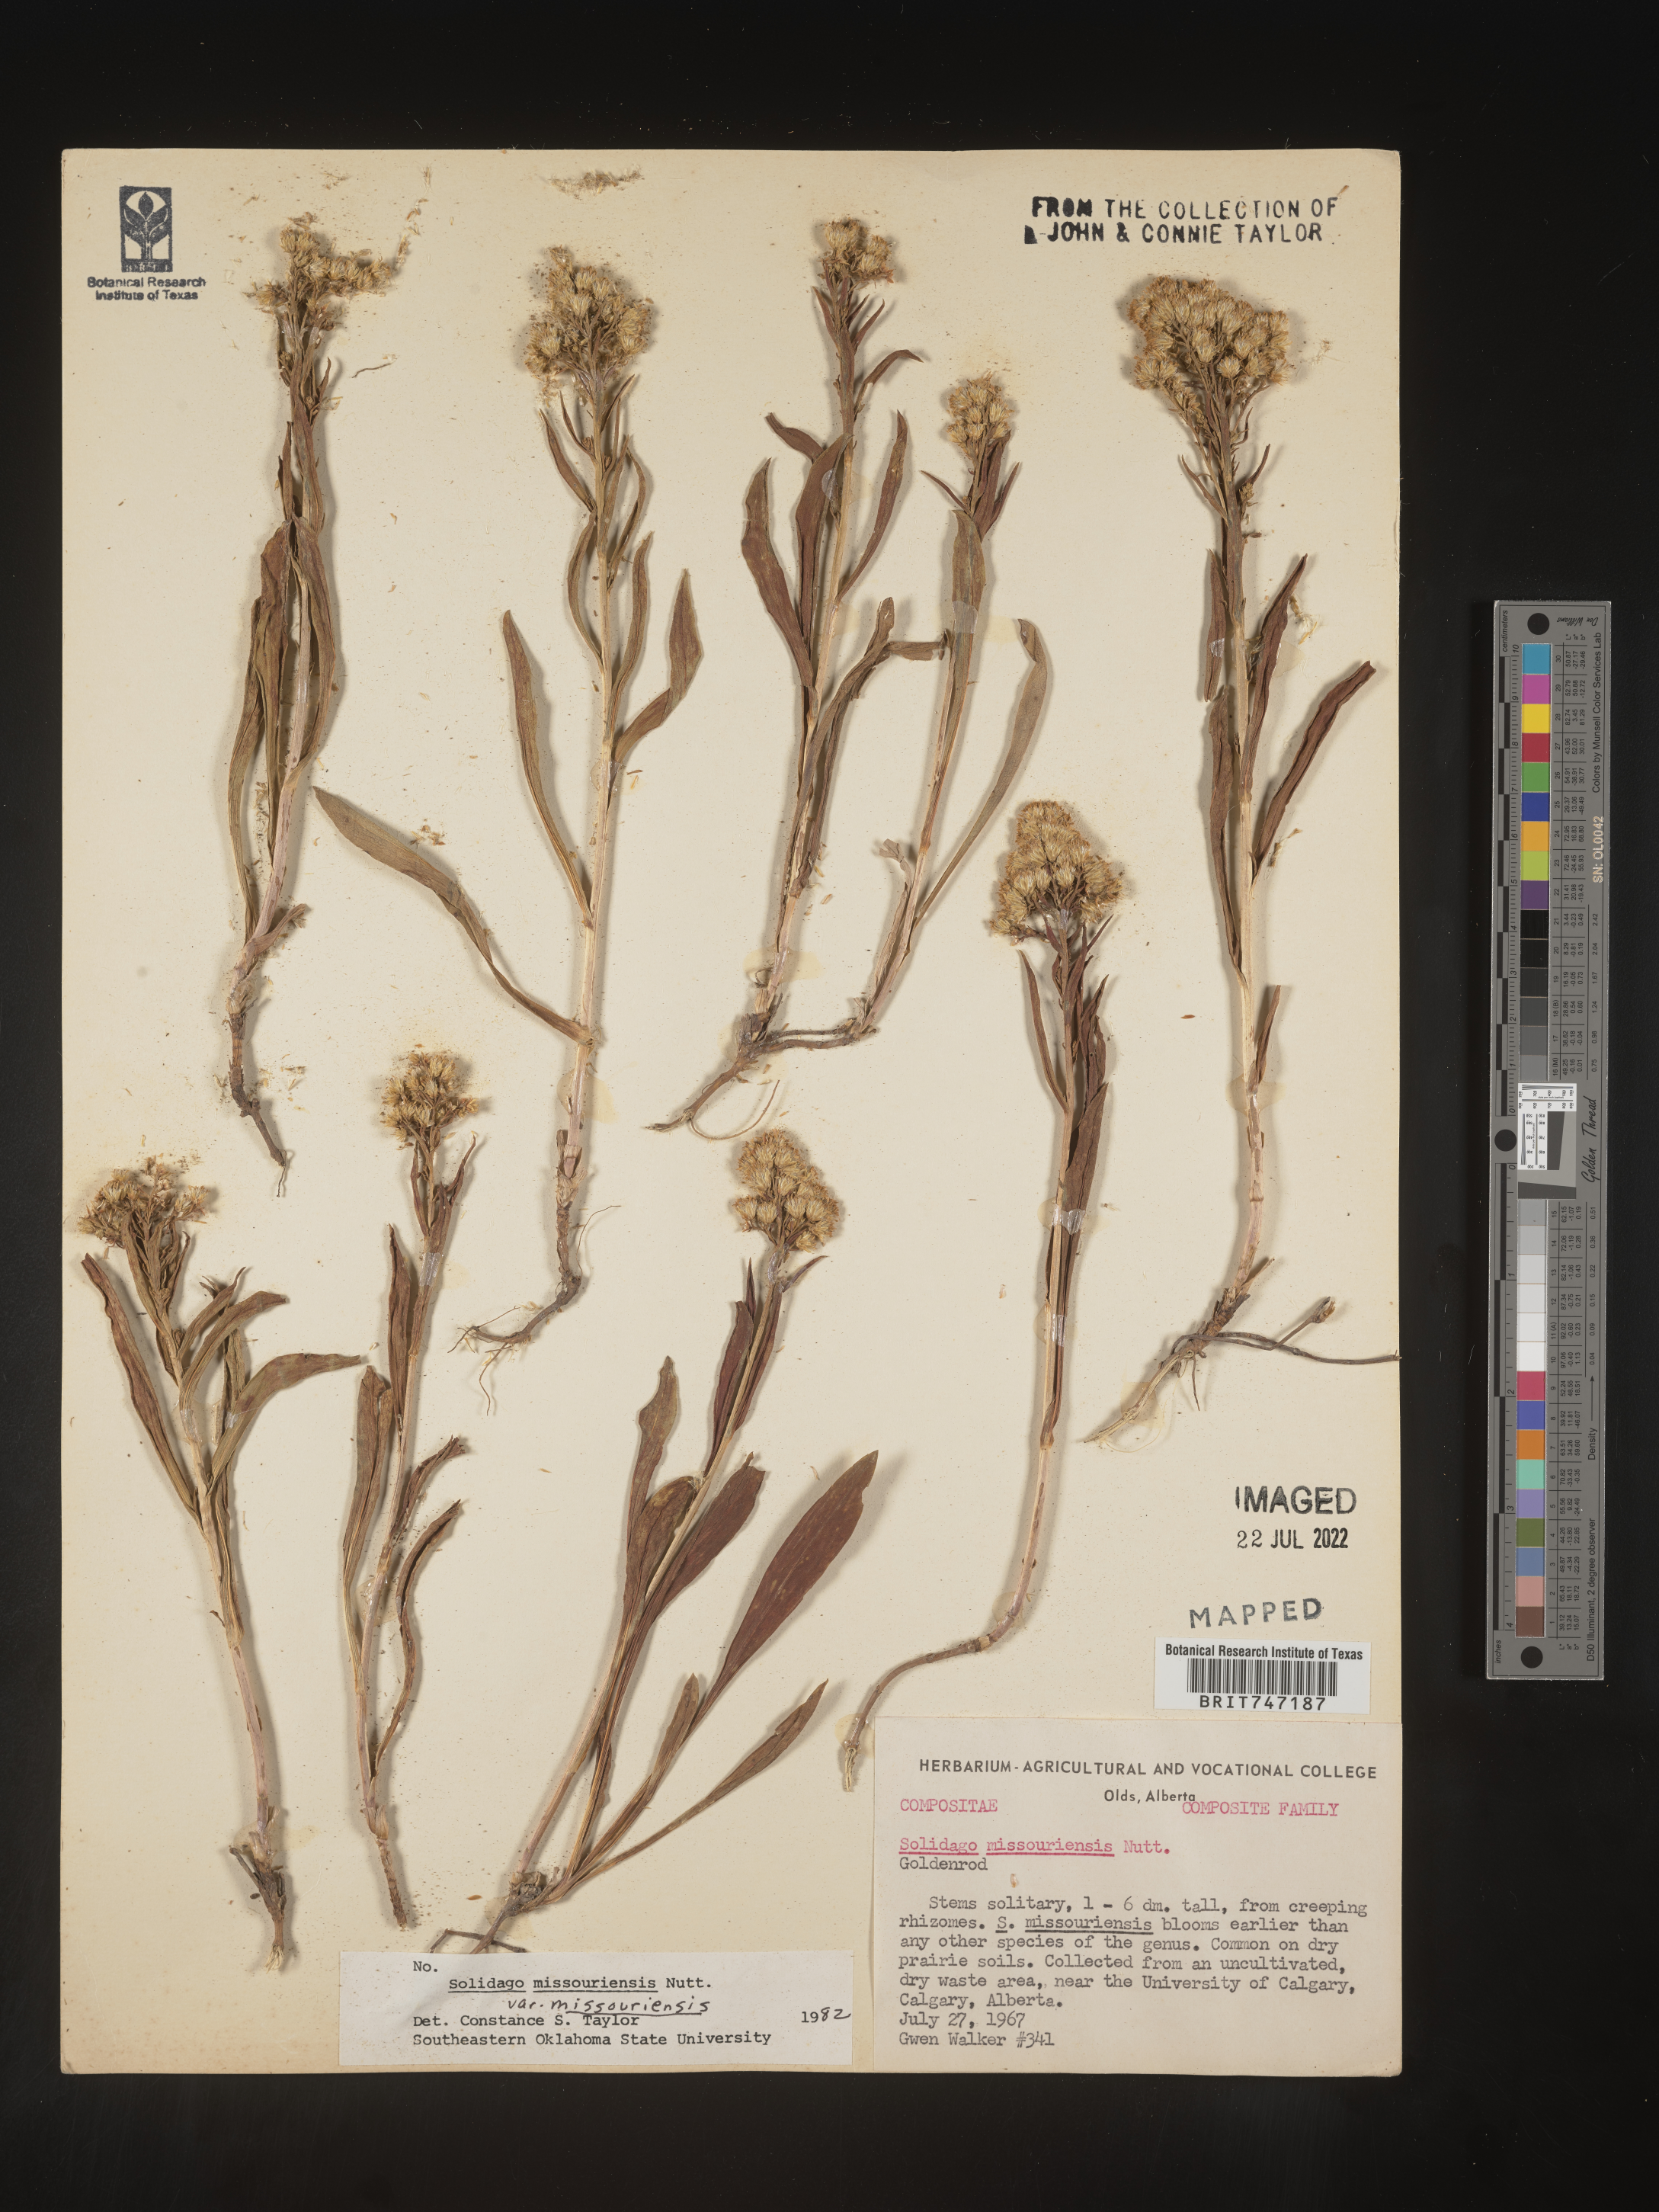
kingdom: Plantae
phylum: Tracheophyta
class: Magnoliopsida
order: Asterales
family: Asteraceae
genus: Solidago
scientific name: Solidago missouriensis
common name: Prairie goldenrod
